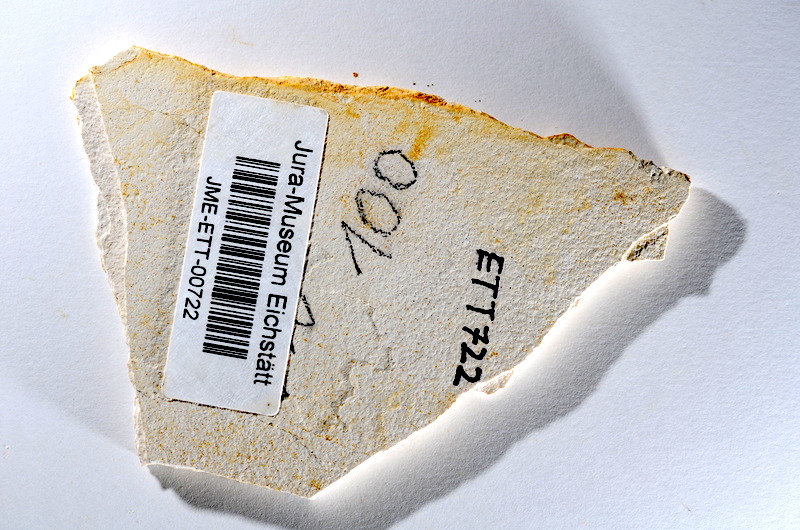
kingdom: Animalia
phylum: Chordata
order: Salmoniformes
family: Orthogonikleithridae
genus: Orthogonikleithrus
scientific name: Orthogonikleithrus hoelli
